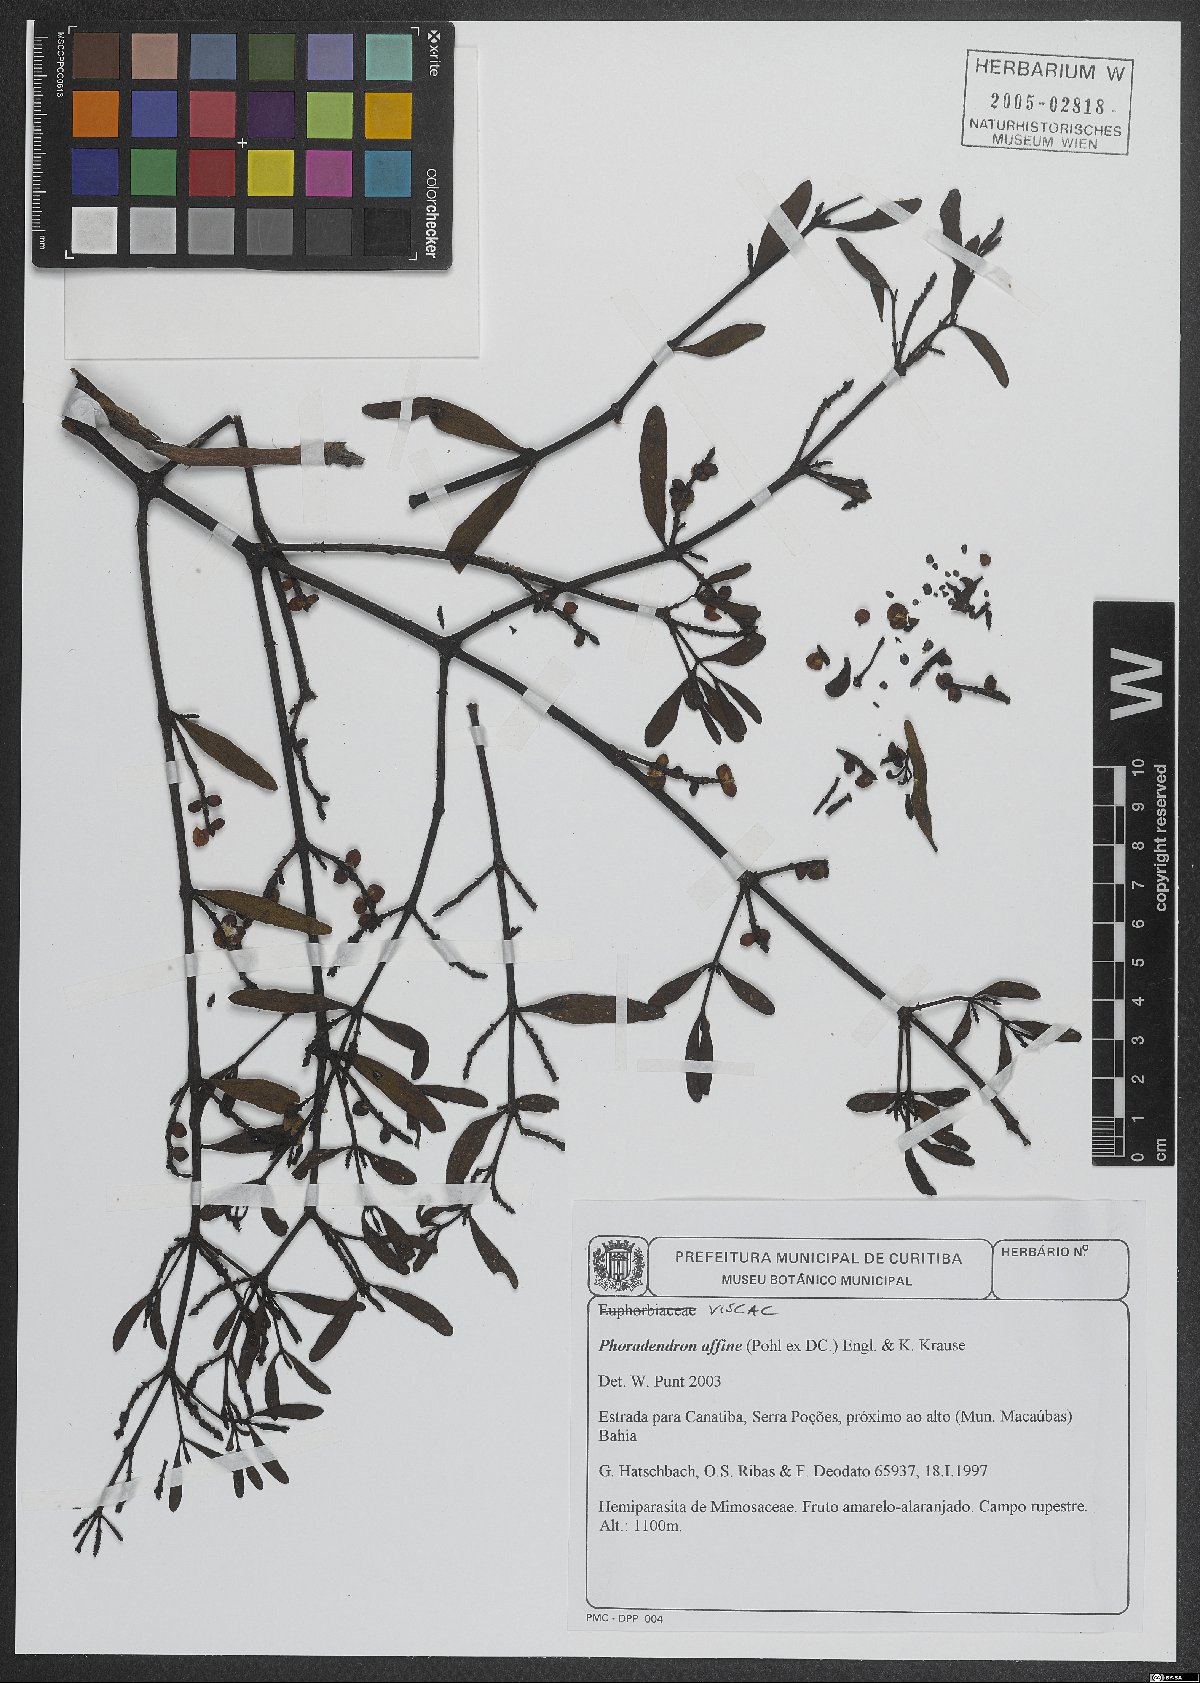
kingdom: Plantae
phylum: Tracheophyta
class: Magnoliopsida
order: Santalales
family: Viscaceae
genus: Phoradendron
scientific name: Phoradendron affine
